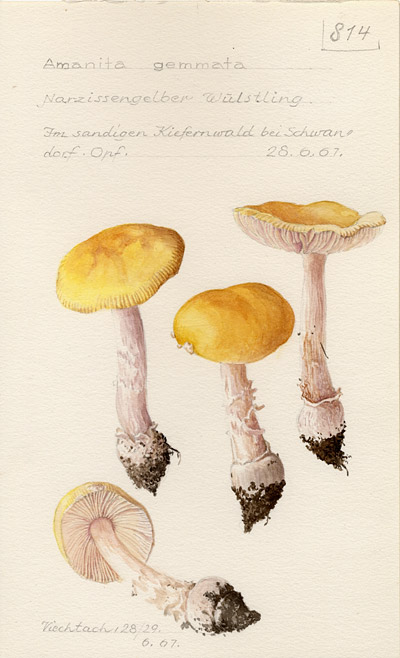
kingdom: Fungi
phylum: Basidiomycota
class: Agaricomycetes
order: Agaricales
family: Amanitaceae
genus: Amanita
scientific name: Amanita gemmata
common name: Jewelled amanita
